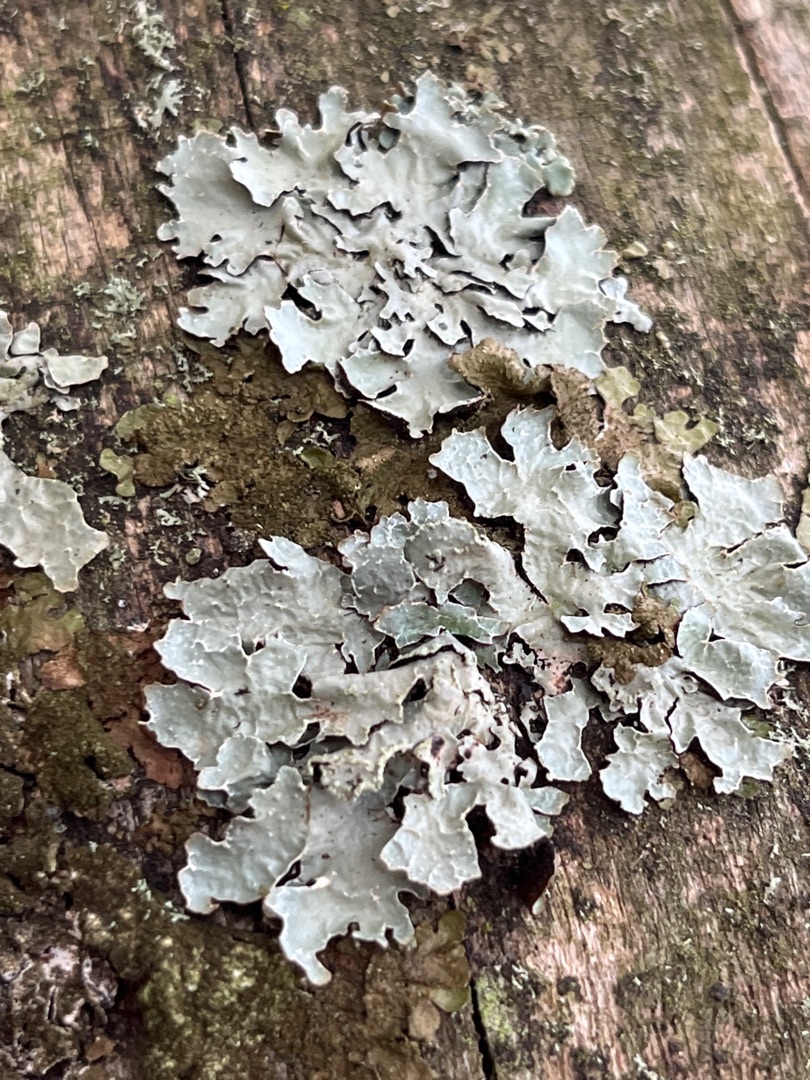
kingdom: Fungi
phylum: Ascomycota
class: Lecanoromycetes
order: Lecanorales
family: Parmeliaceae
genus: Parmelia
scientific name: Parmelia sulcata
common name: Rynket skållav
